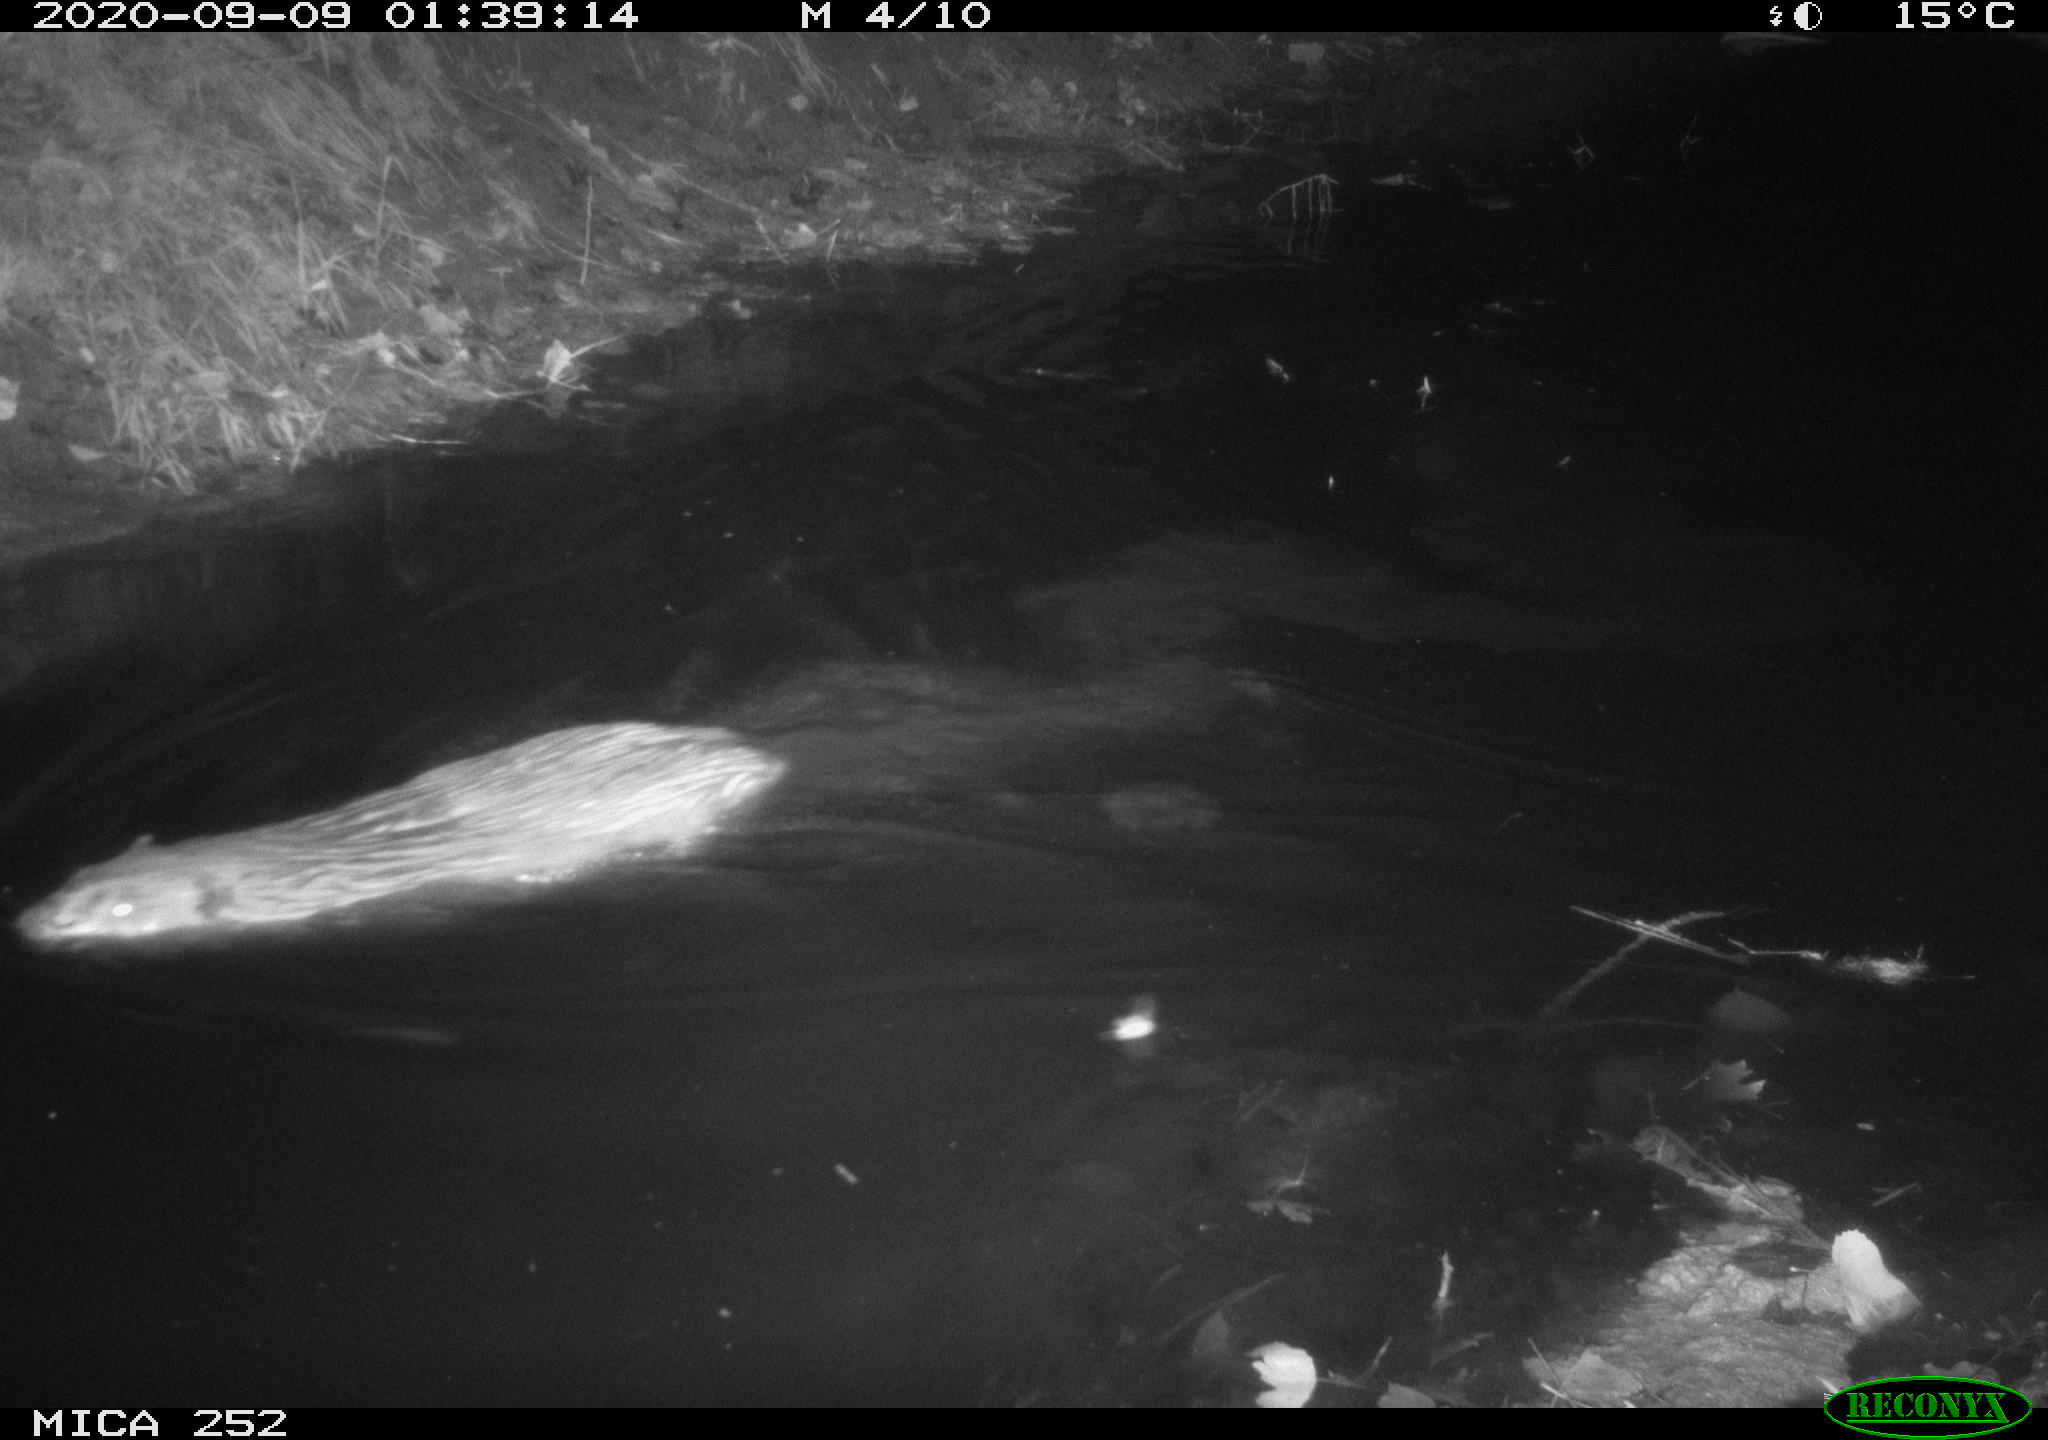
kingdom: Animalia
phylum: Chordata
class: Mammalia
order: Rodentia
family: Castoridae
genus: Castor
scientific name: Castor fiber
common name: Eurasian beaver
